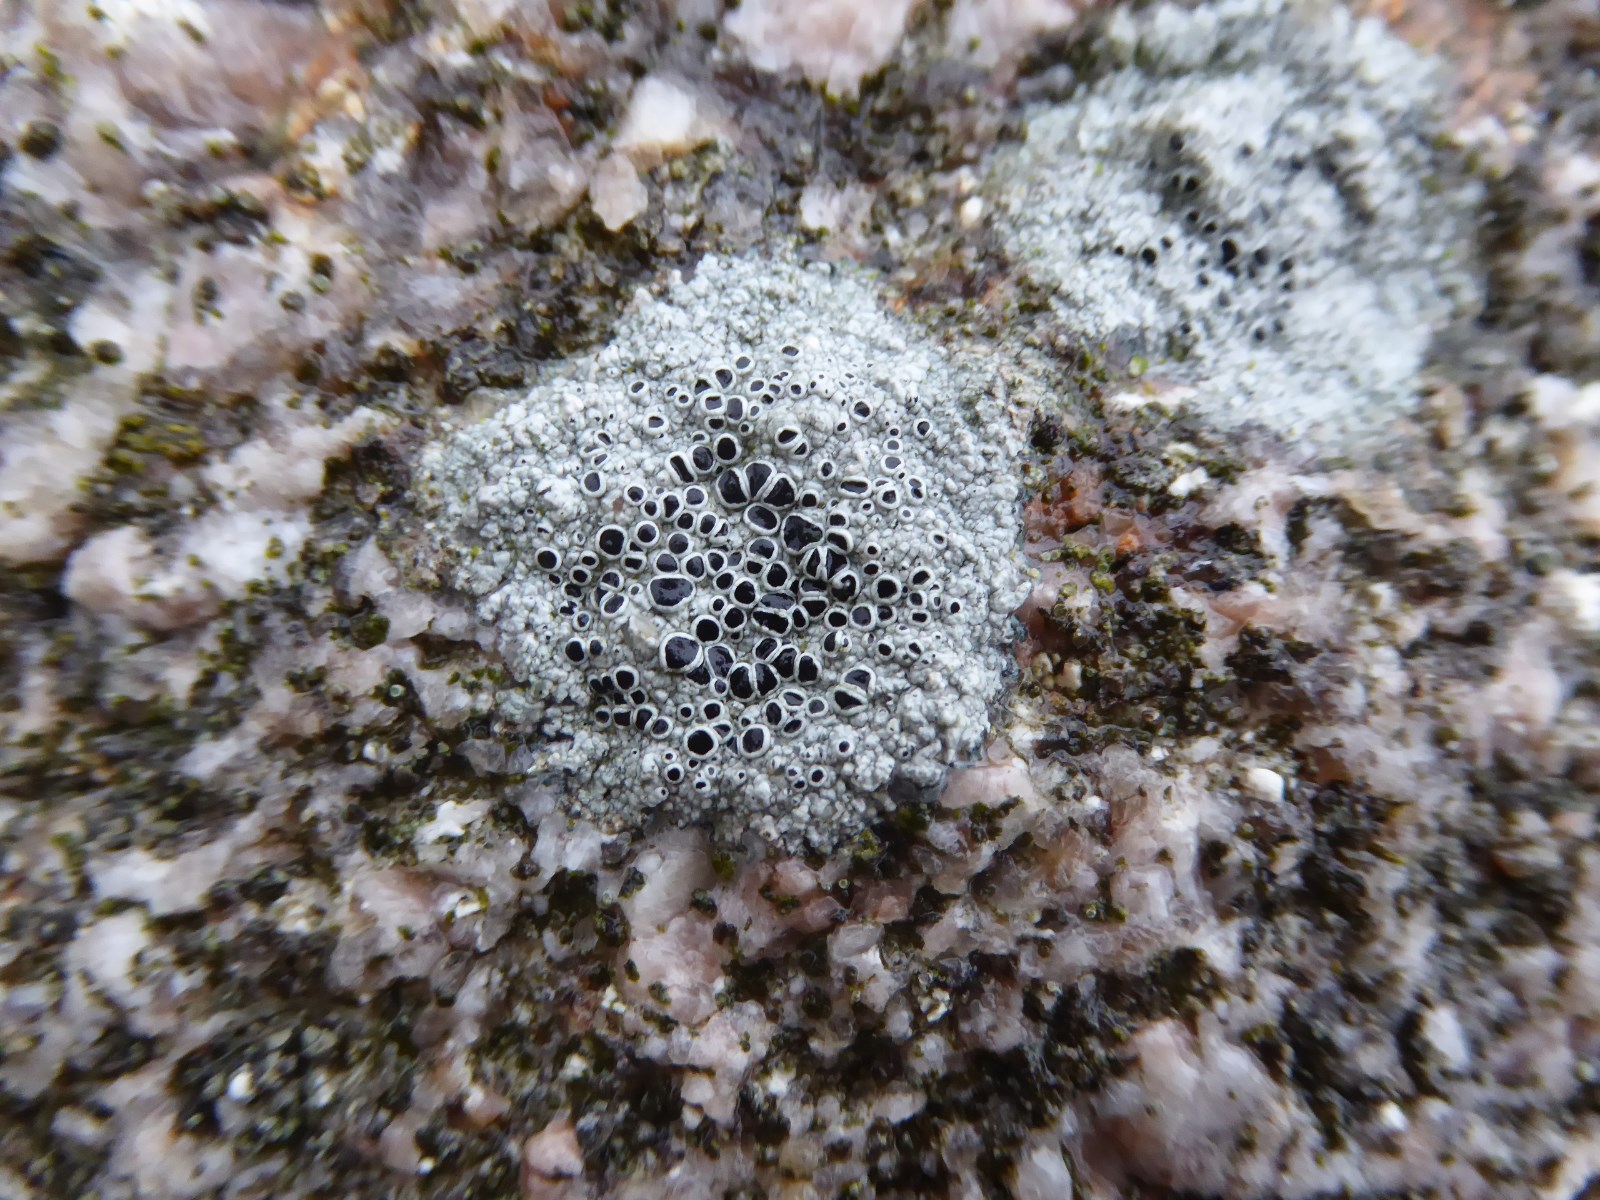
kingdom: Fungi
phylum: Ascomycota
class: Lecanoromycetes
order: Lecanorales
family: Tephromelataceae
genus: Tephromela
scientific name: Tephromela atra
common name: sortfrugtet kantskivelav
